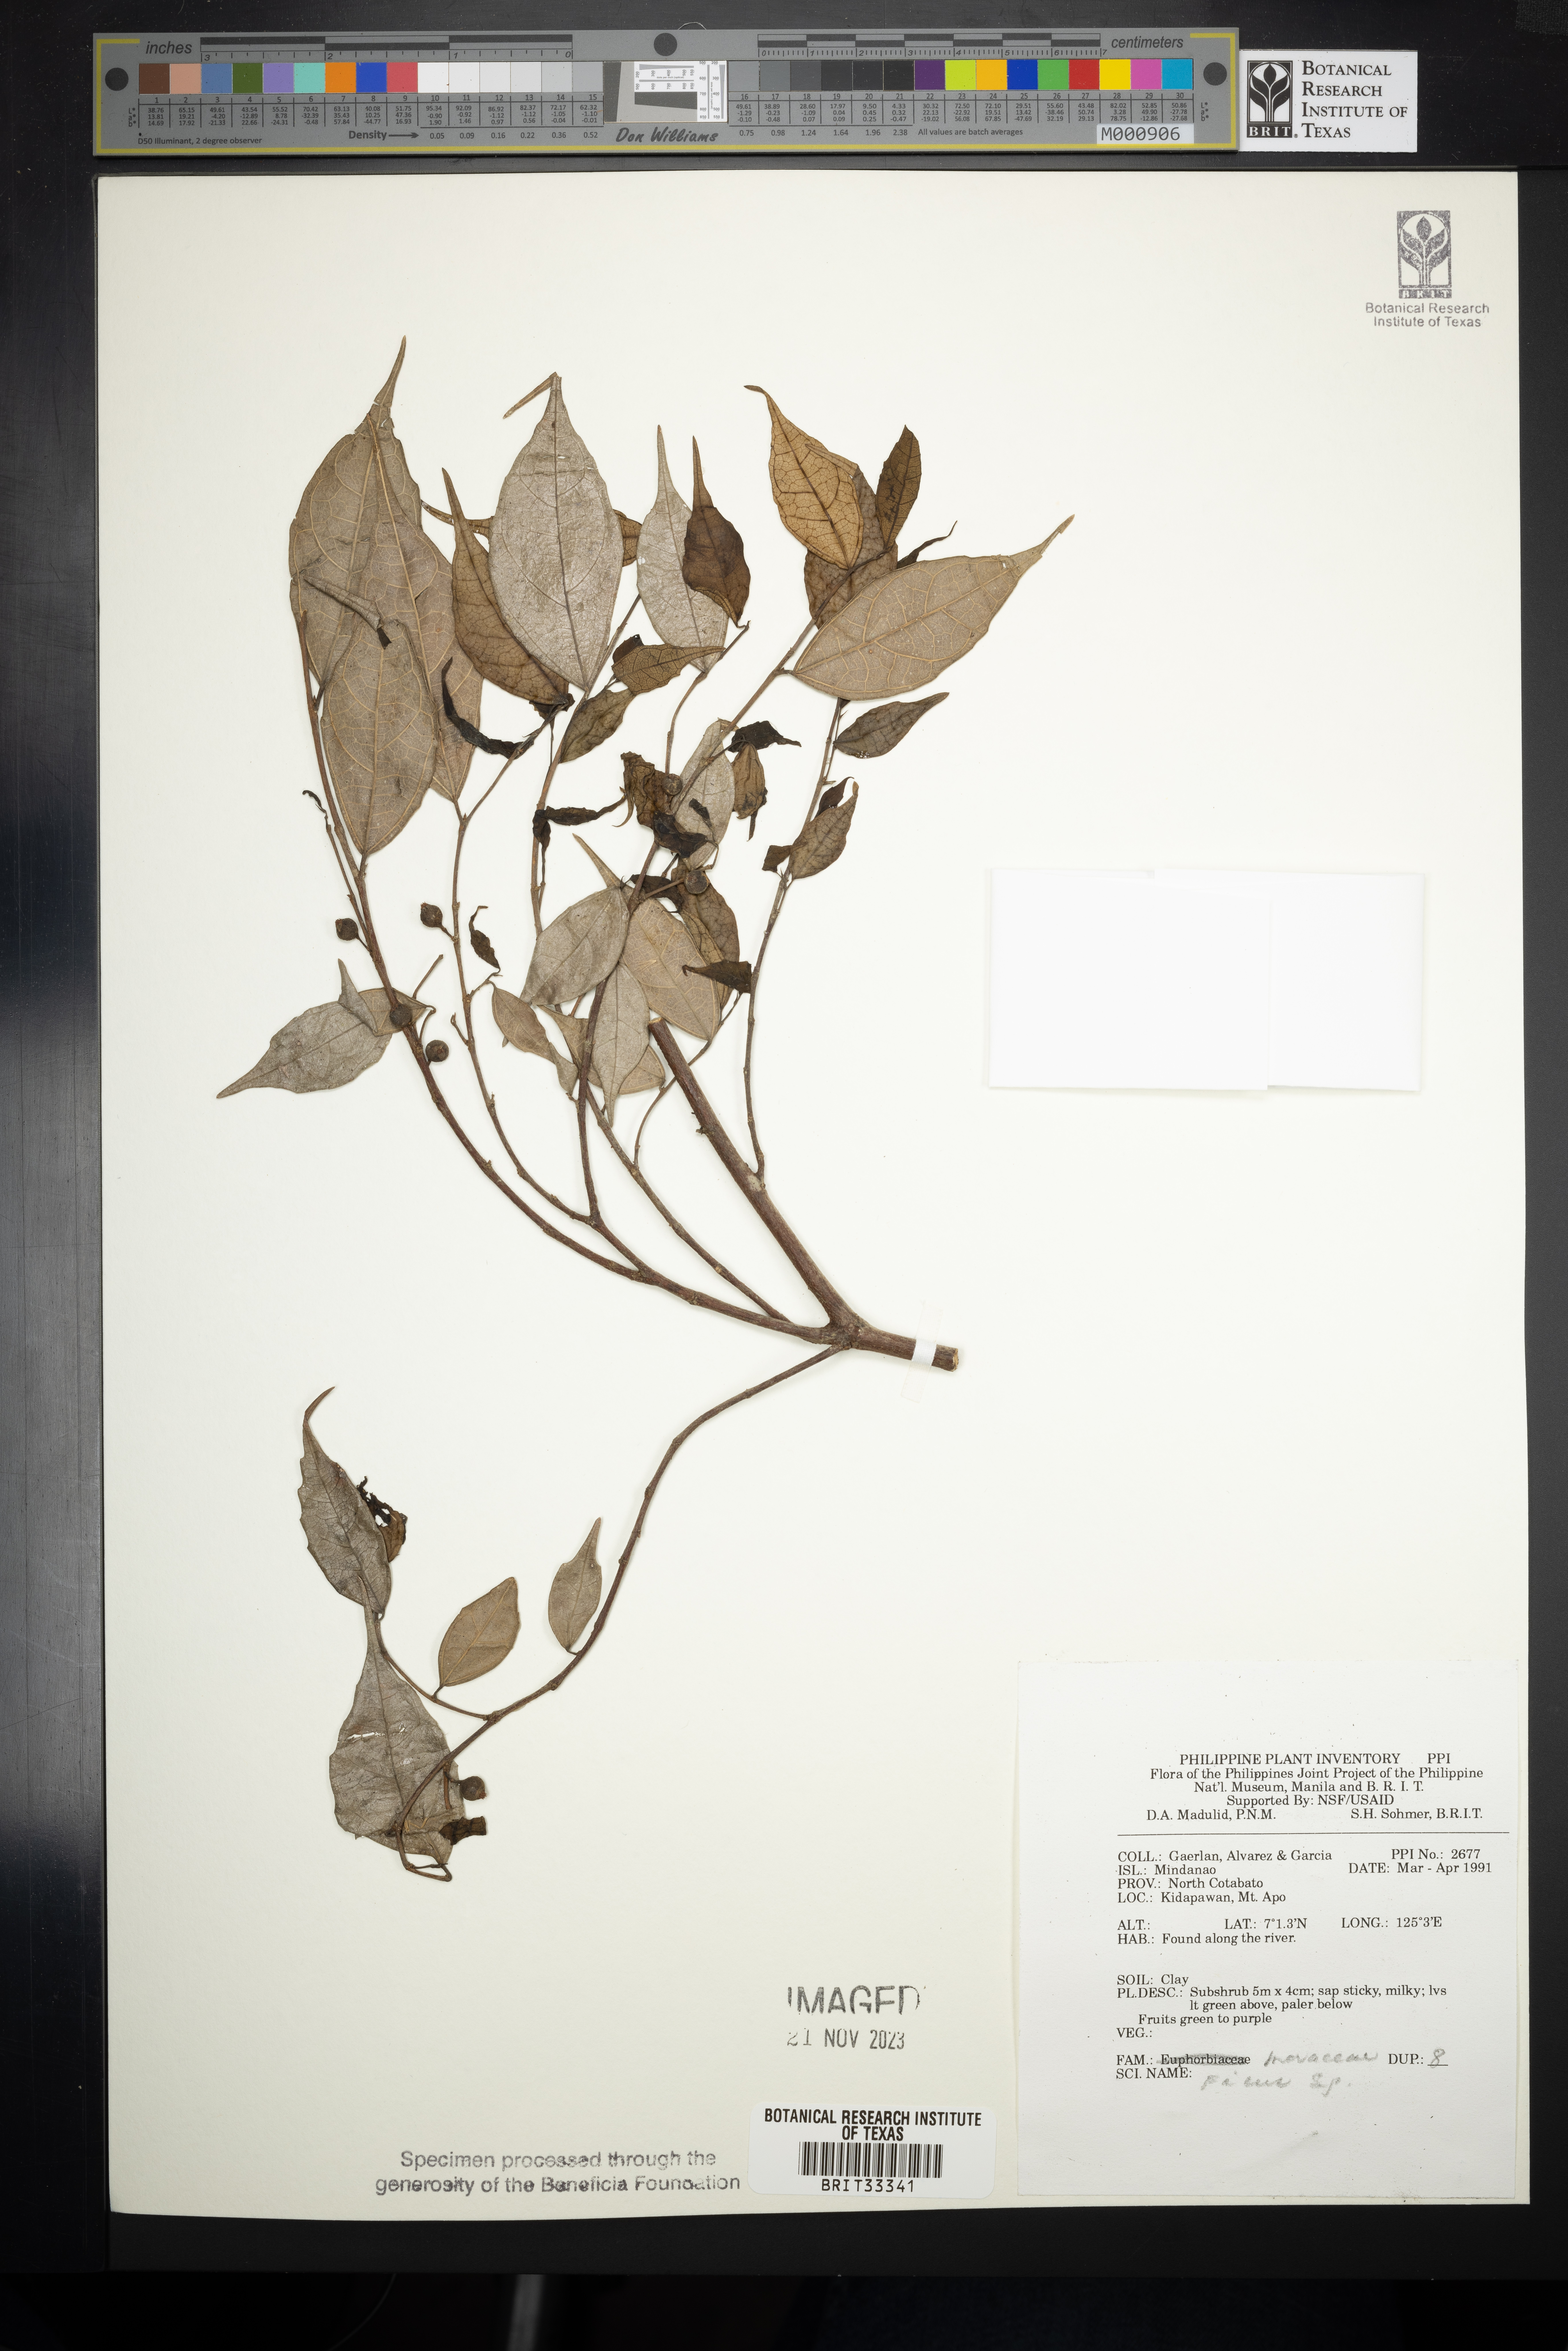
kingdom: Plantae
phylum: Tracheophyta
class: Magnoliopsida
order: Rosales
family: Moraceae
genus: Ficus
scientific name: Ficus
